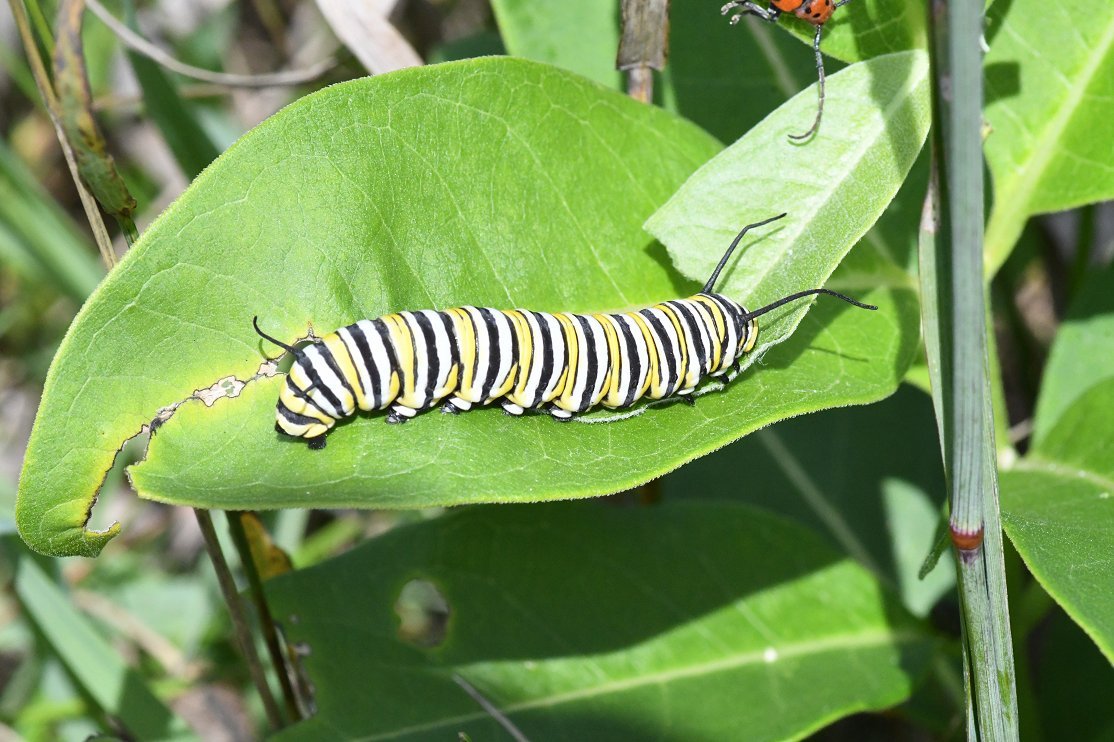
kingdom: Animalia
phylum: Arthropoda
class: Insecta
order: Lepidoptera
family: Nymphalidae
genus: Danaus
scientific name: Danaus plexippus
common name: Monarch
